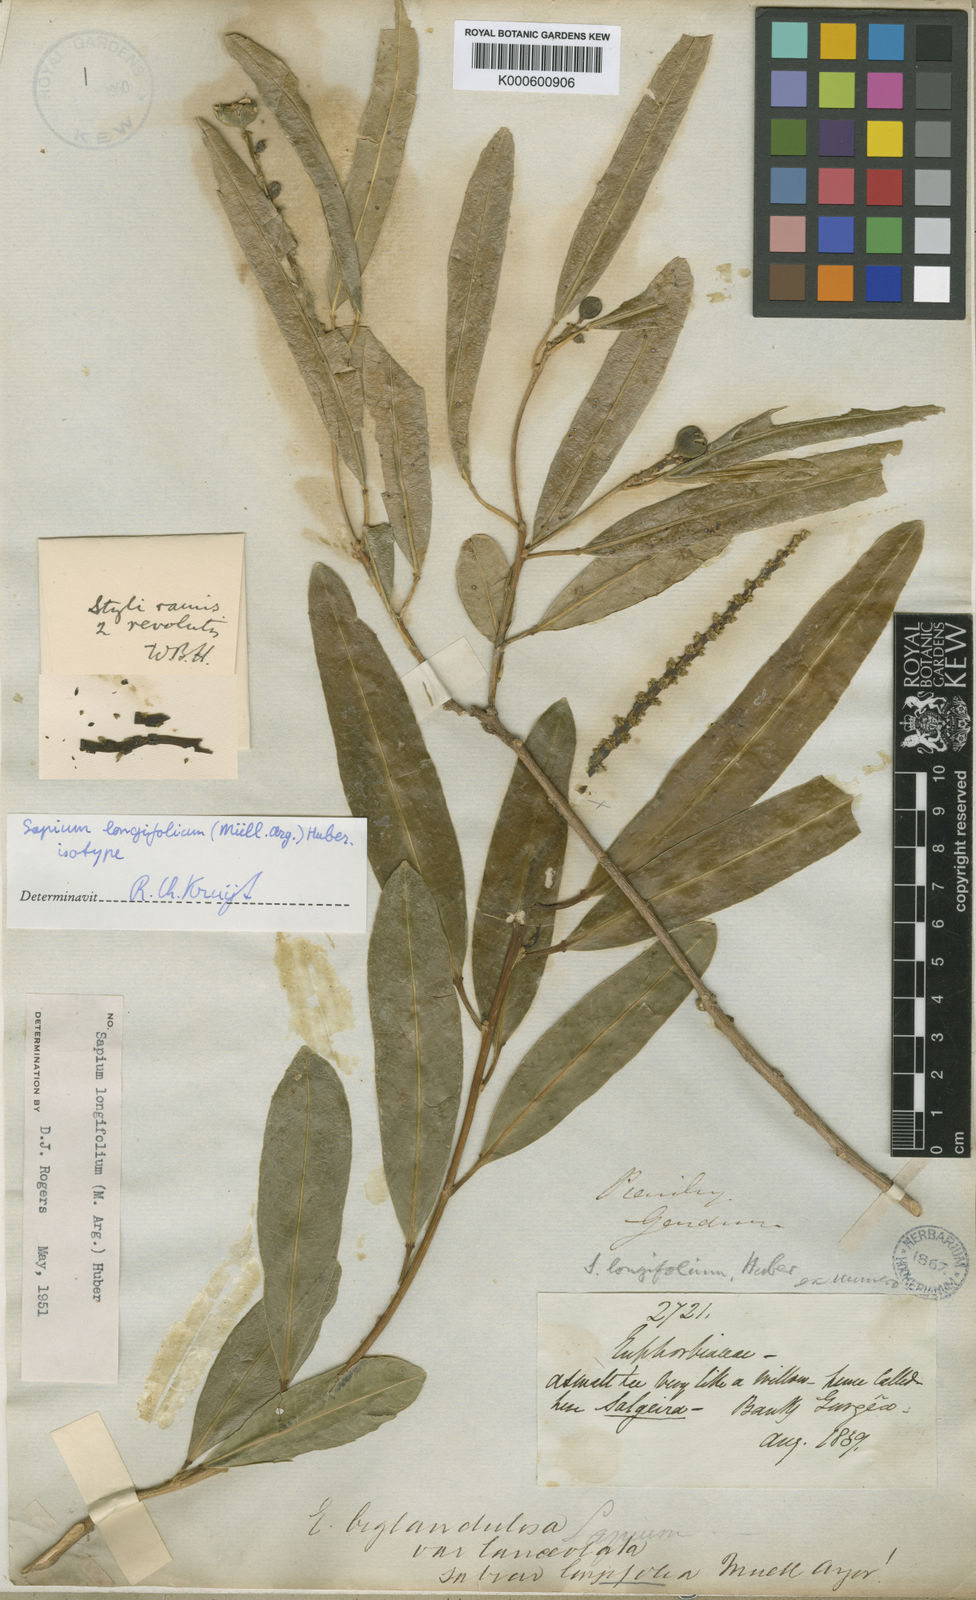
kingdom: Plantae
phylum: Tracheophyta
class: Magnoliopsida
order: Malpighiales
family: Euphorbiaceae
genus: Sapium
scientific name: Sapium
